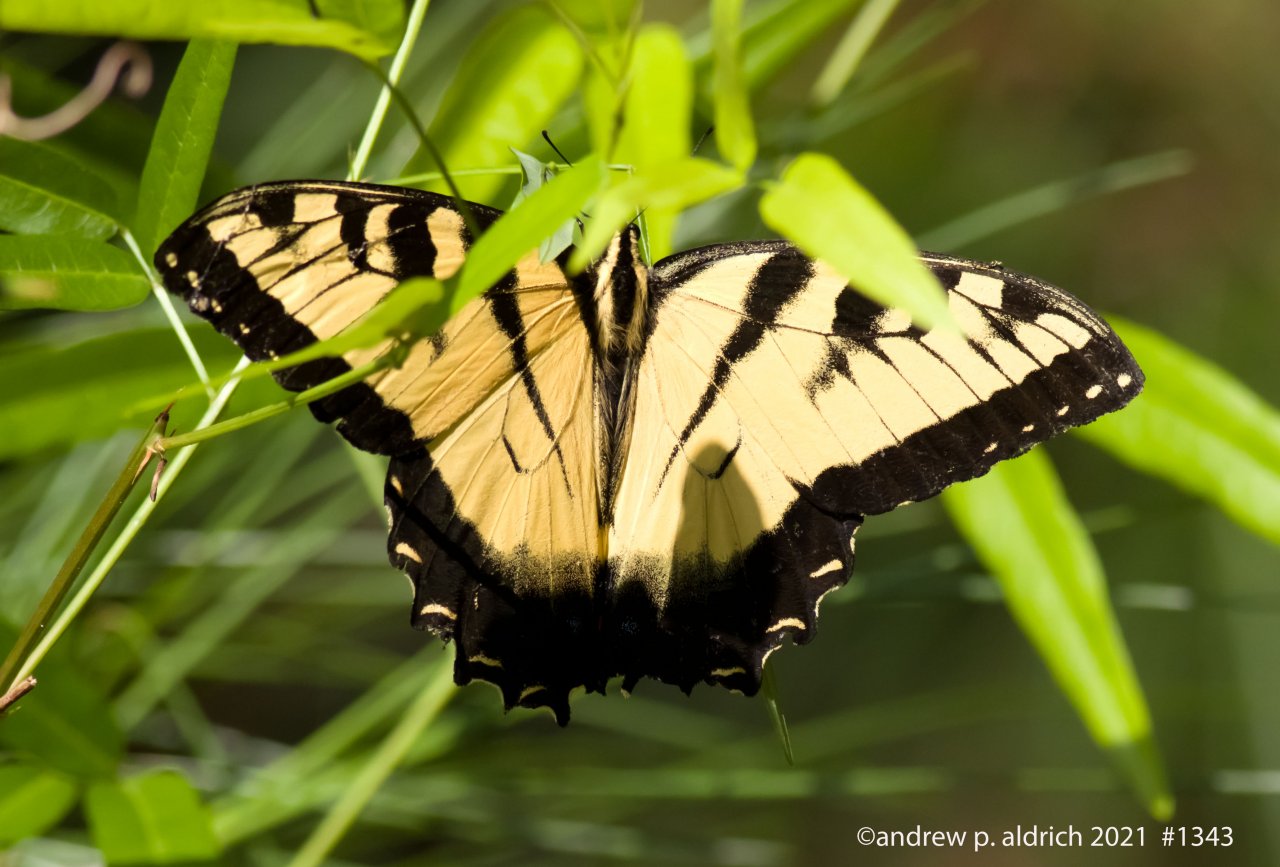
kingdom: Animalia
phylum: Arthropoda
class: Insecta
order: Lepidoptera
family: Papilionidae
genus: Pterourus
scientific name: Pterourus glaucus
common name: Eastern Tiger Swallowtail
